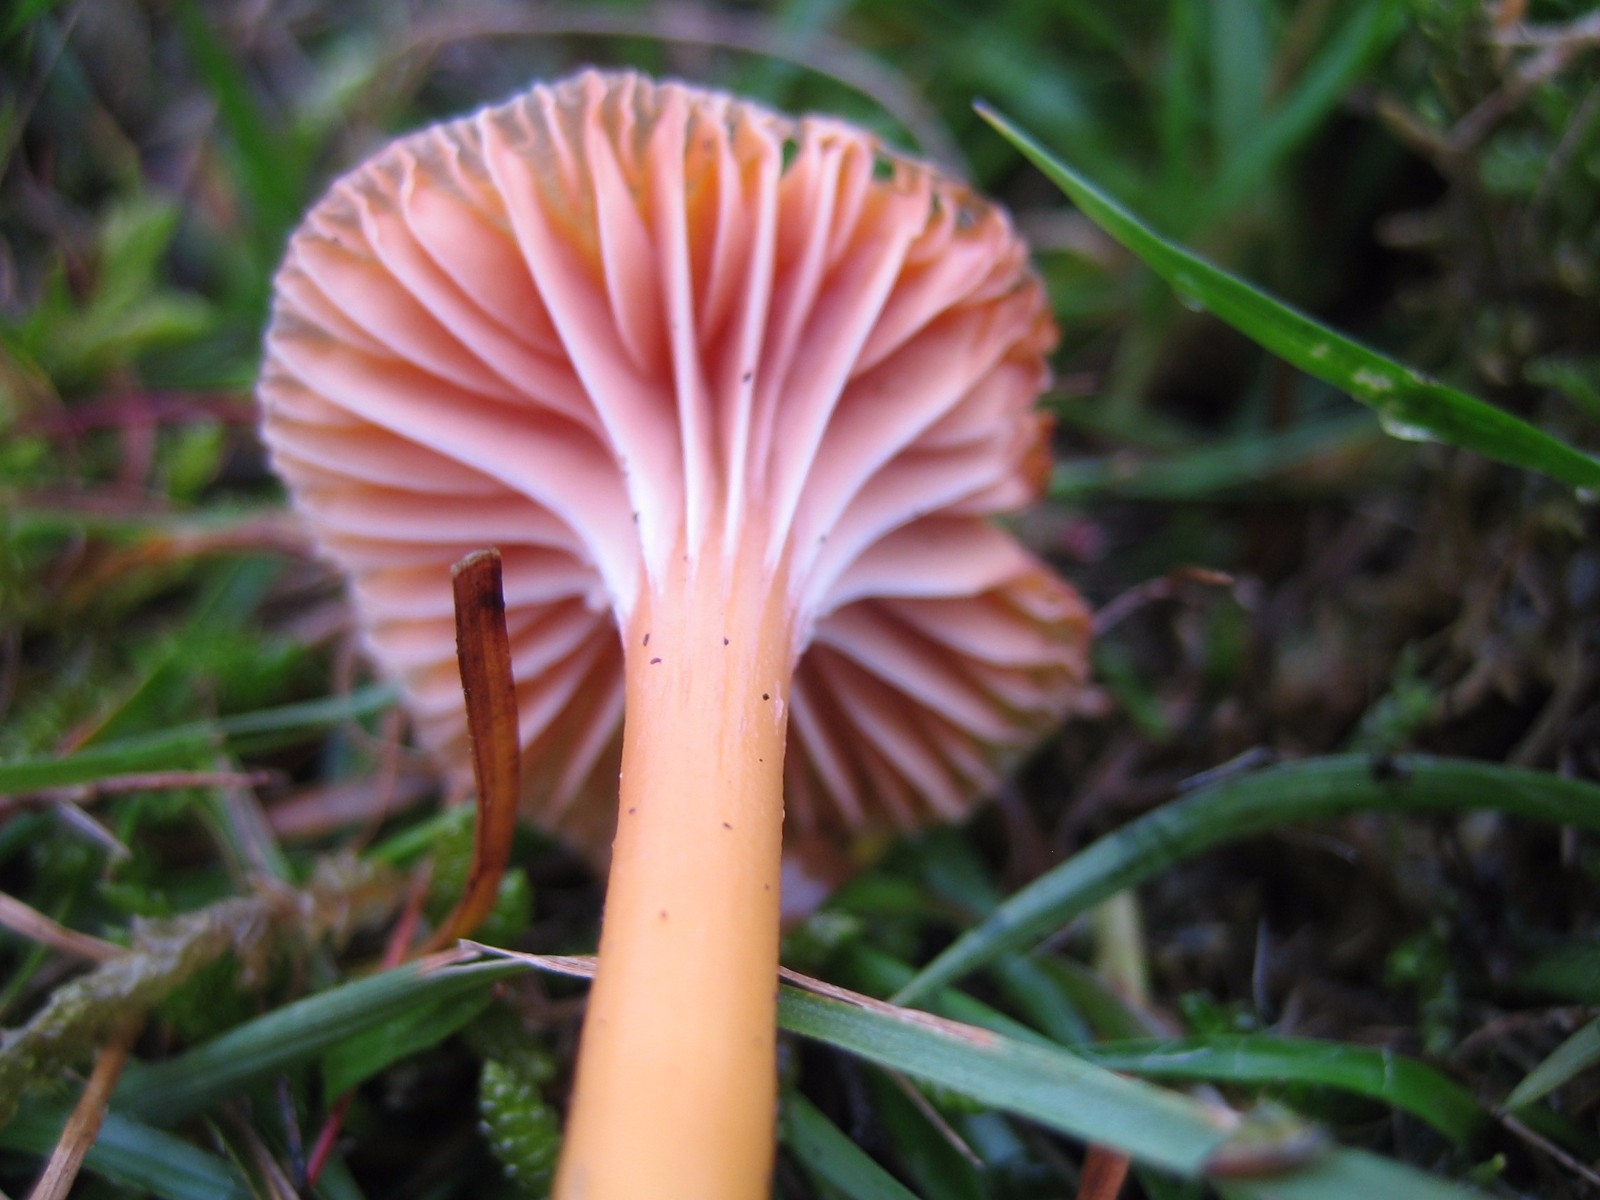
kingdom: Fungi
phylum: Basidiomycota
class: Agaricomycetes
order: Agaricales
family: Hygrophoraceae
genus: Gliophorus
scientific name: Gliophorus laetus
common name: brusk-vokshat
